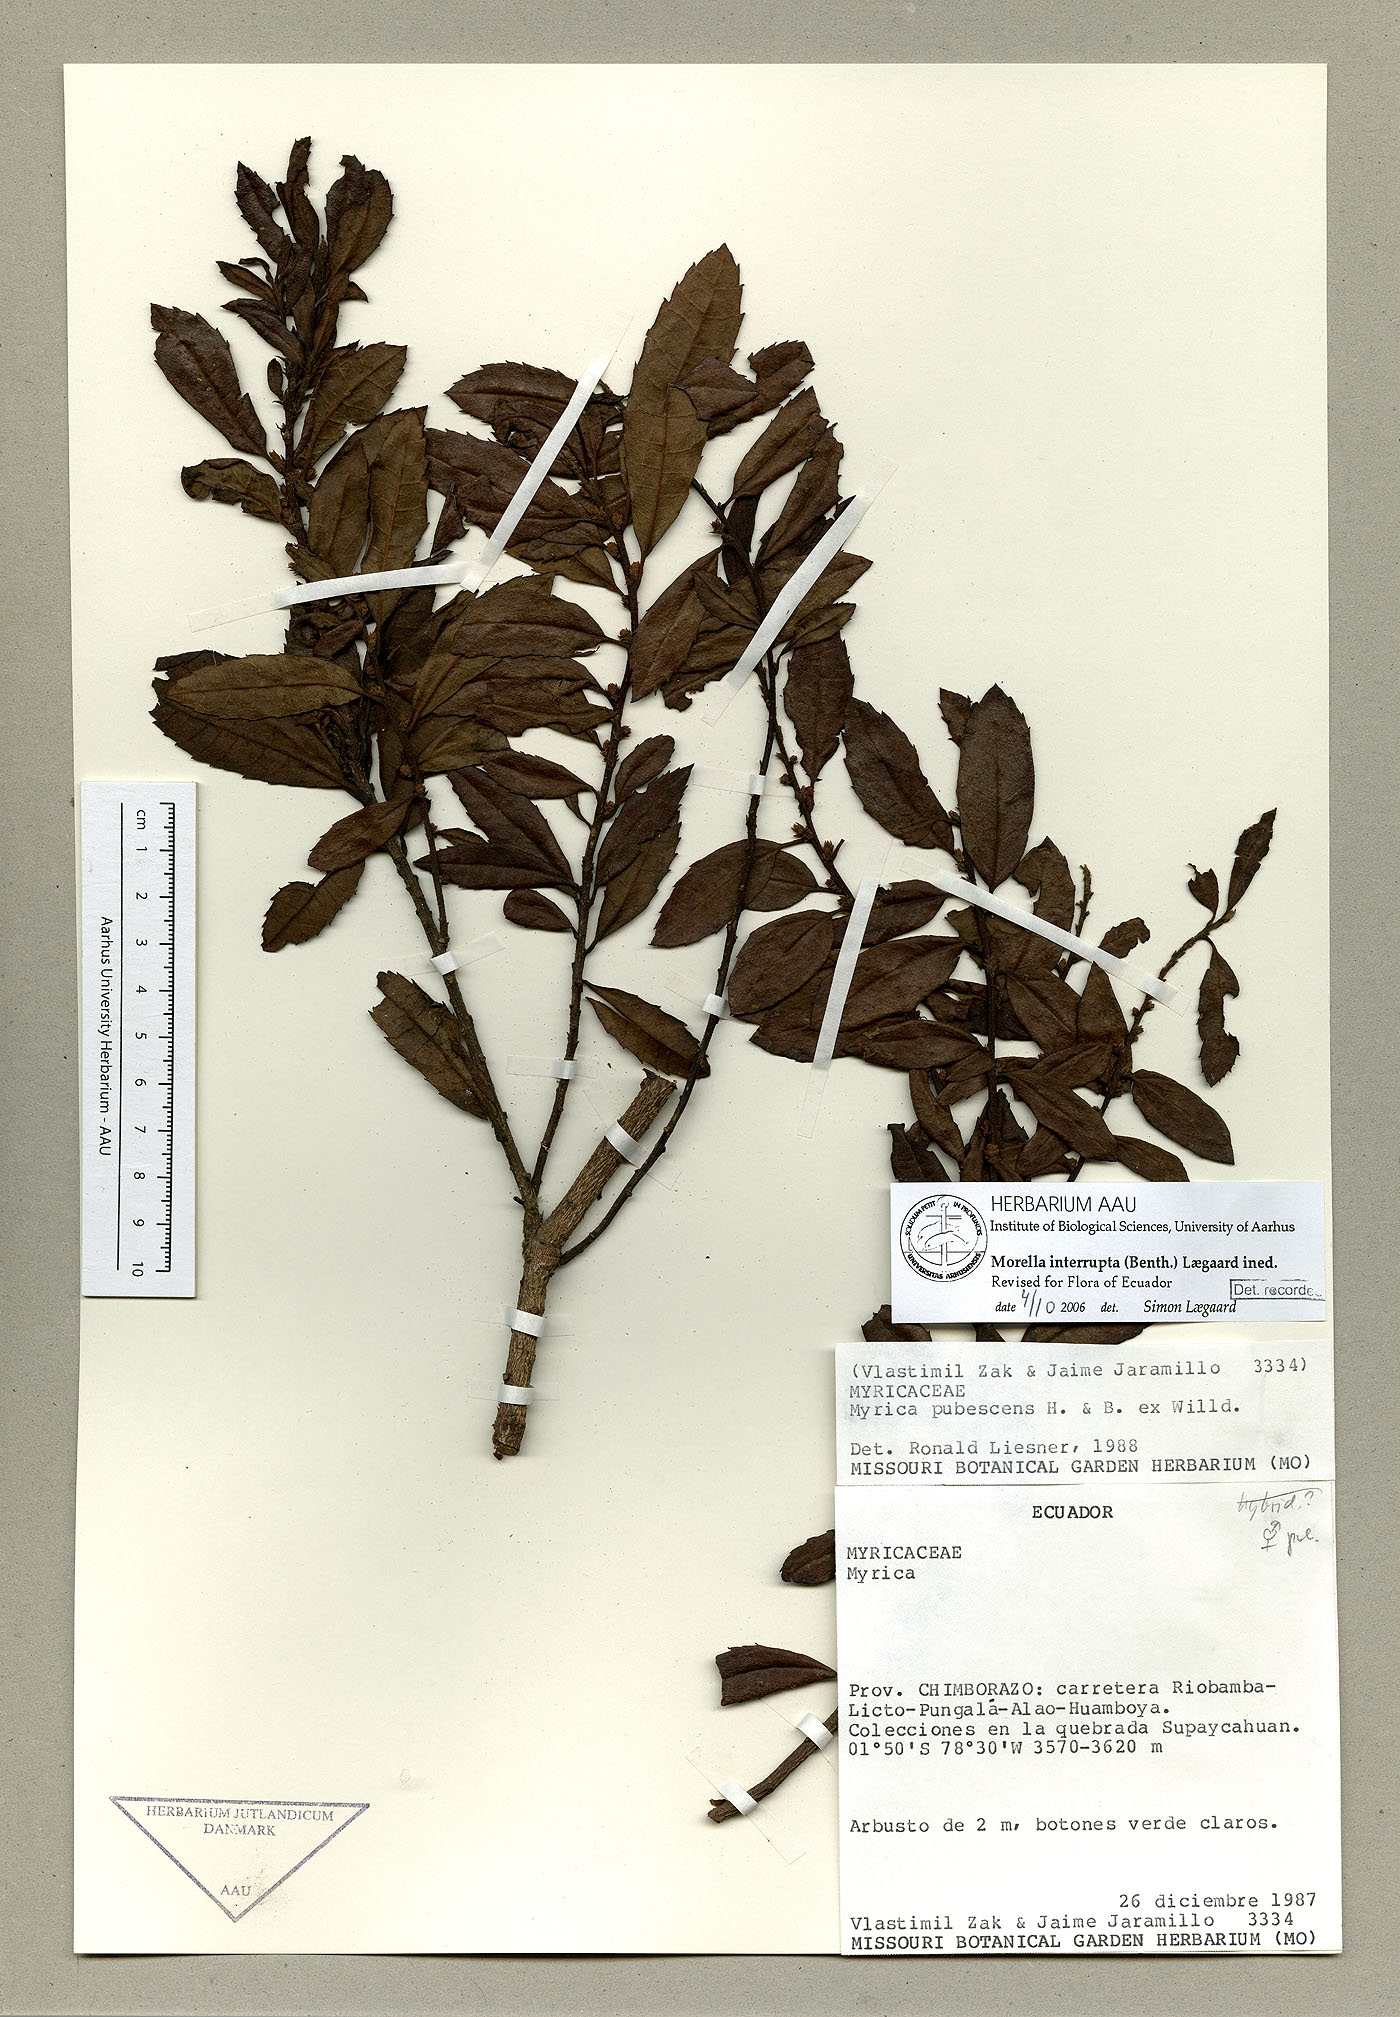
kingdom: Plantae
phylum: Tracheophyta
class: Magnoliopsida
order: Fagales
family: Myricaceae
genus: Morella
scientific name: Morella interrupta
